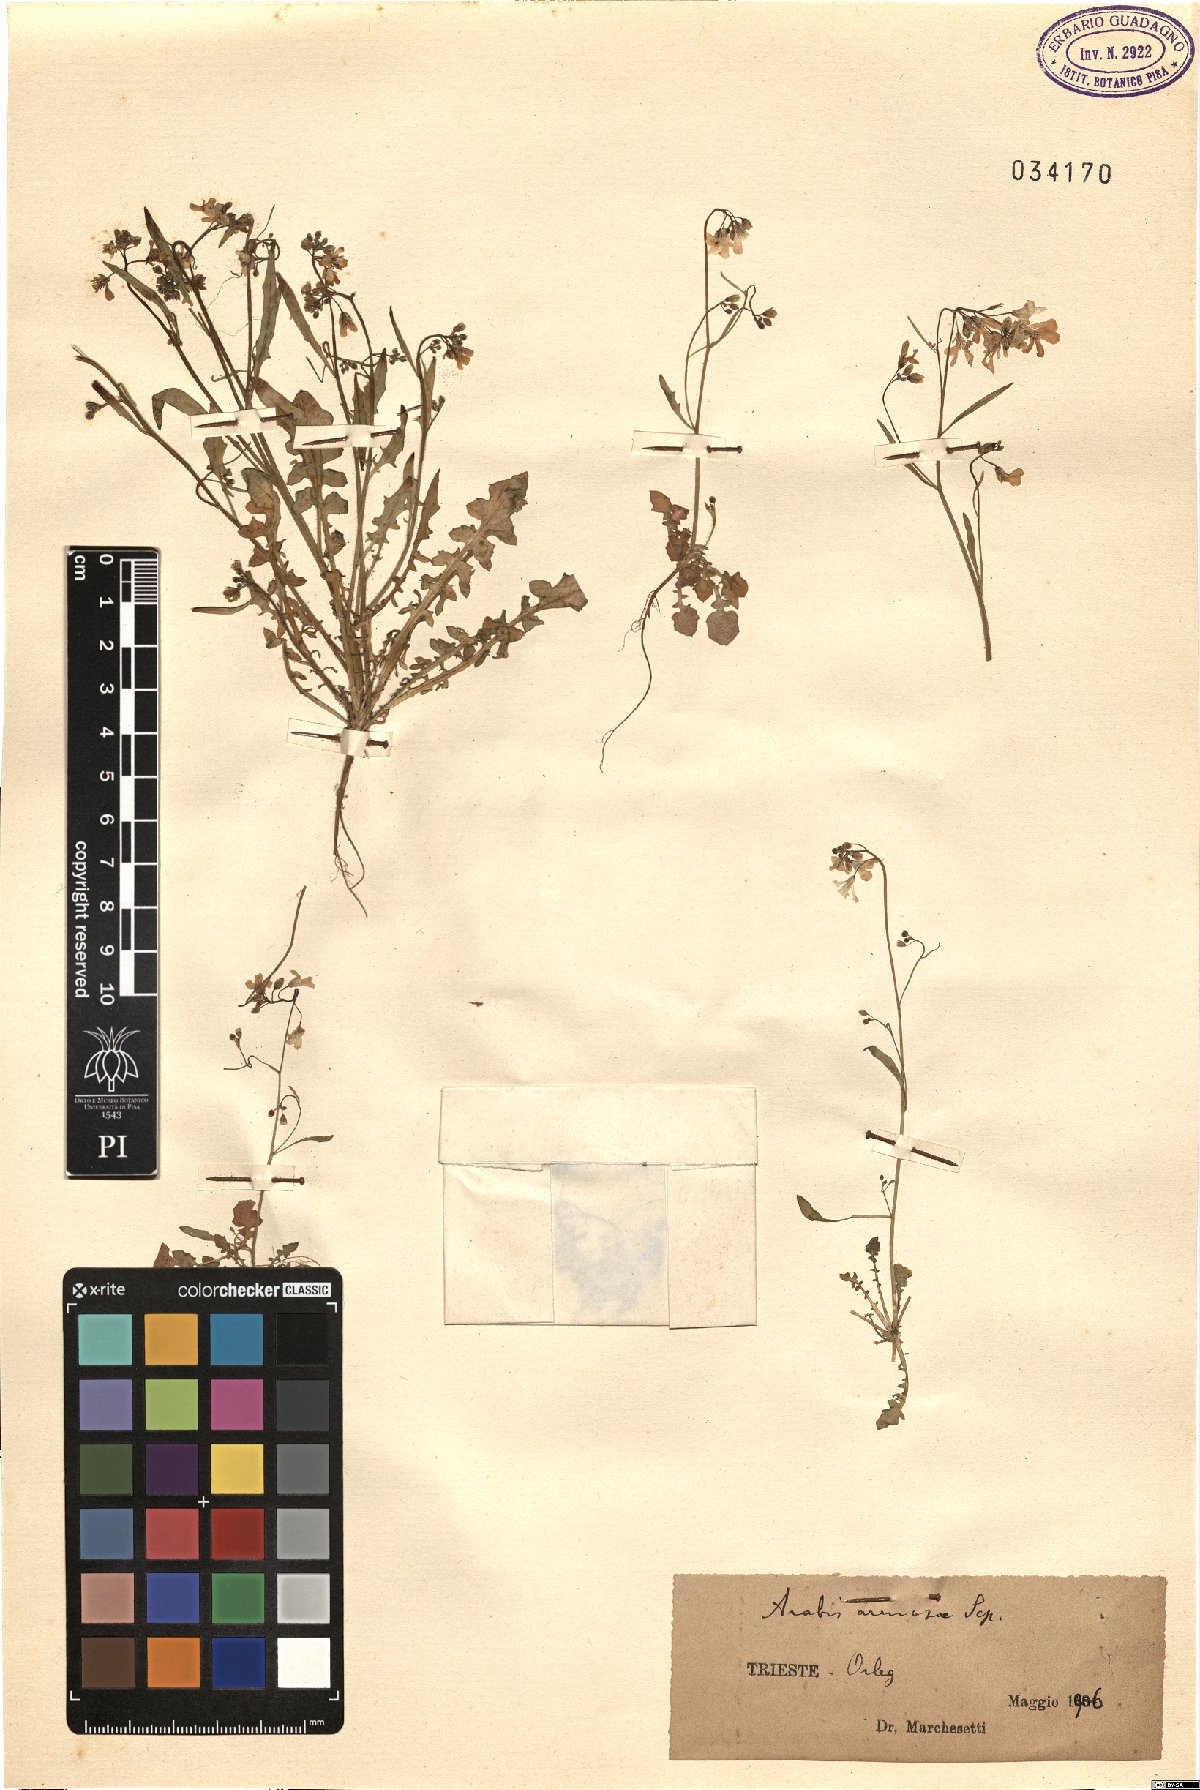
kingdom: Plantae
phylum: Tracheophyta
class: Magnoliopsida
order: Brassicales
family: Brassicaceae
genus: Arabidopsis
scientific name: Arabidopsis arenosa
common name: Sand rock-cress
